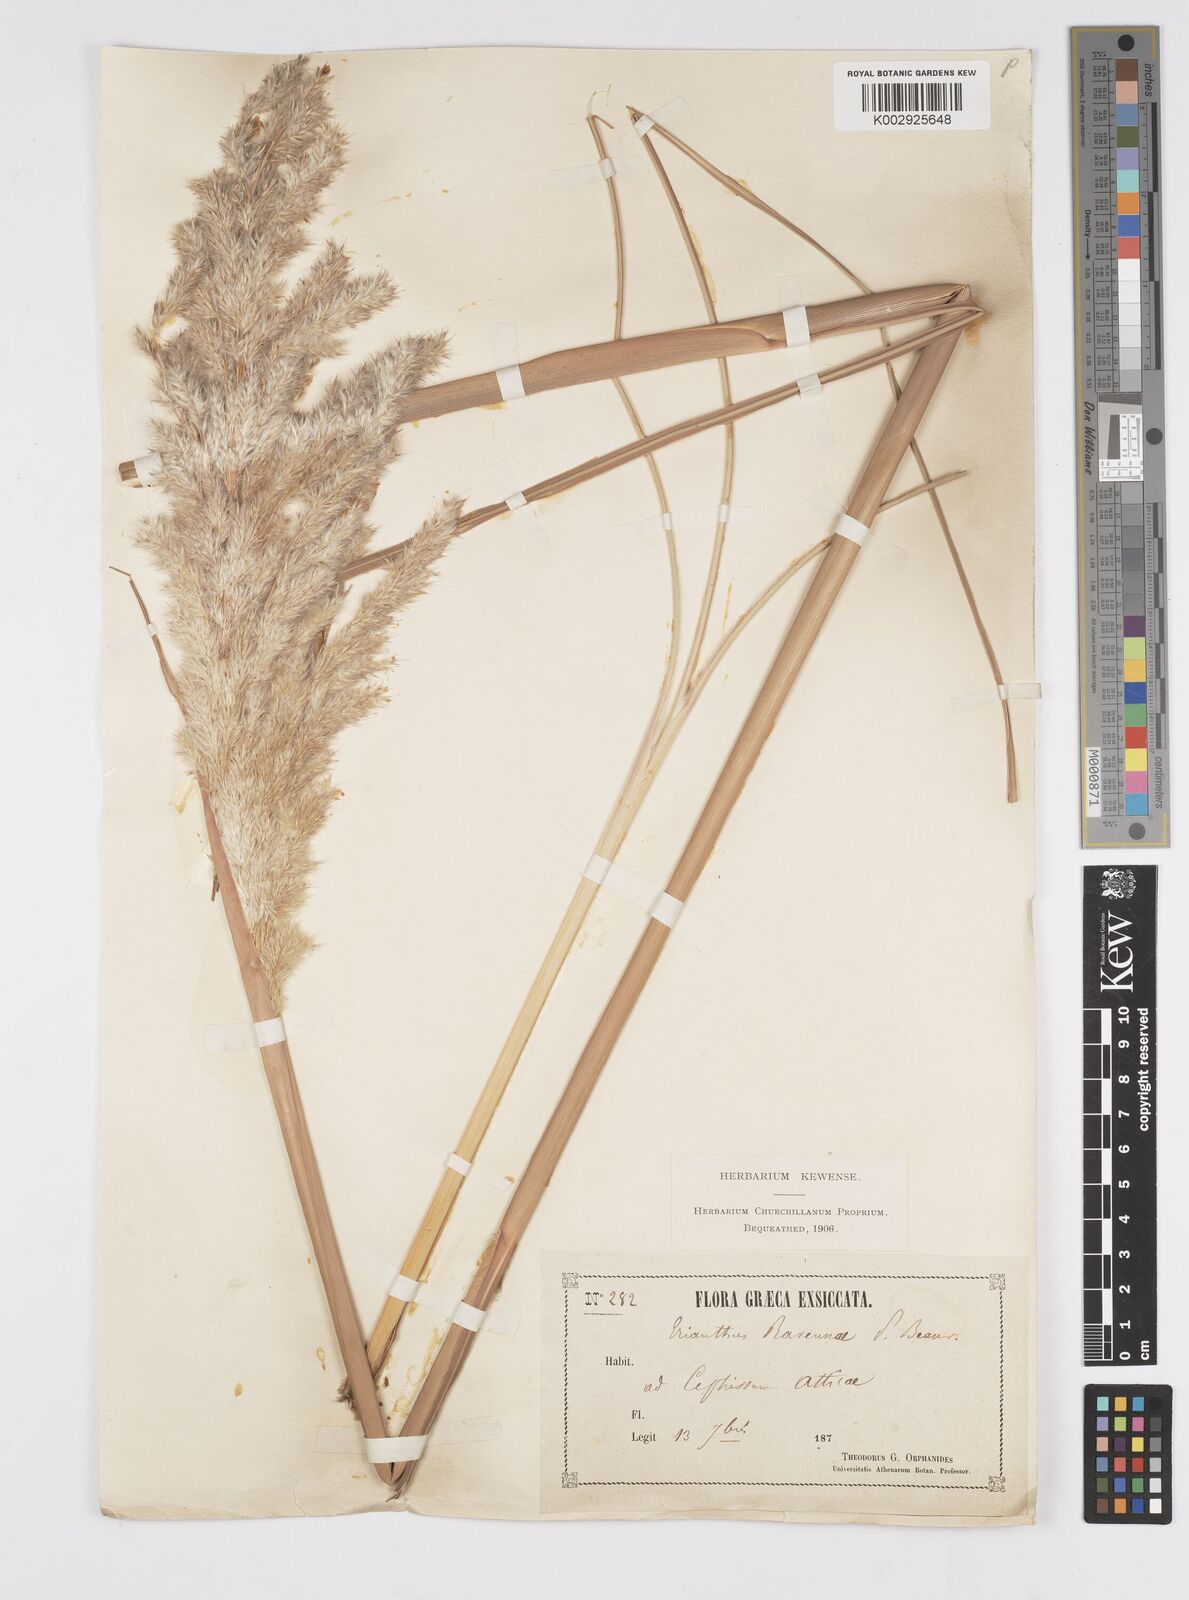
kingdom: Plantae
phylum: Tracheophyta
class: Liliopsida
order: Poales
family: Poaceae
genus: Tripidium
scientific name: Tripidium ravennae
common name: Ravenna grass
